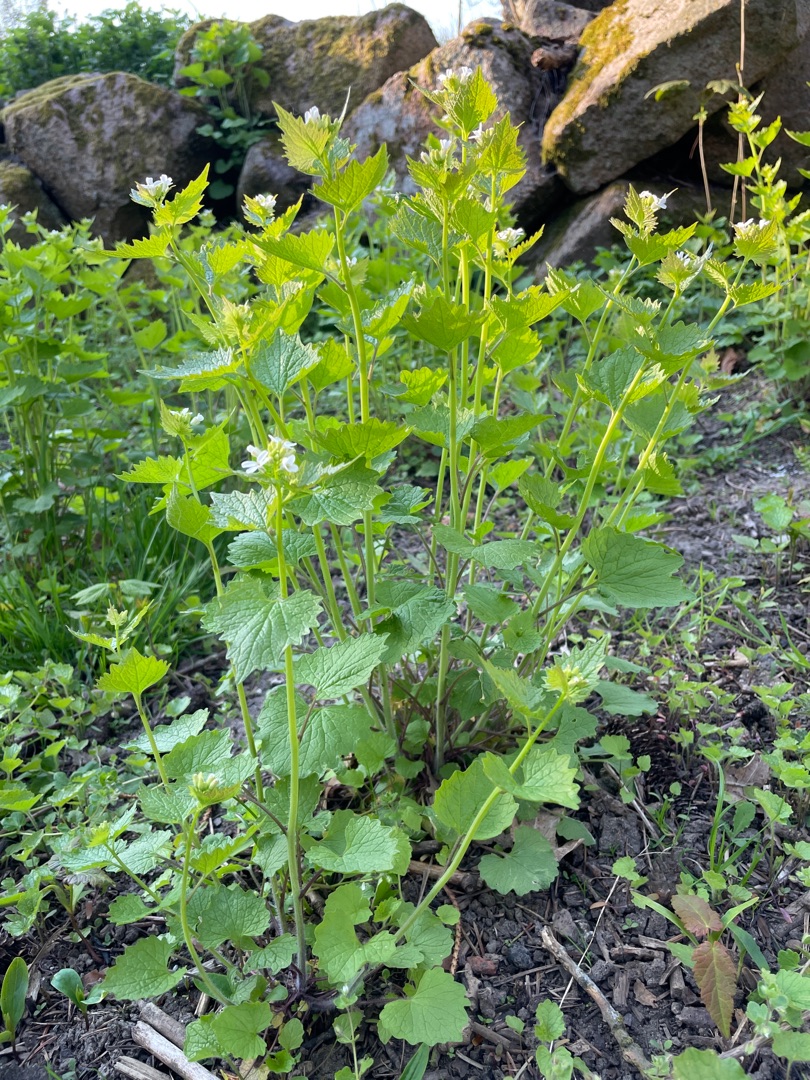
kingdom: Plantae
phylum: Tracheophyta
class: Magnoliopsida
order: Brassicales
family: Brassicaceae
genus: Alliaria
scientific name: Alliaria petiolata
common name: Løgkarse
